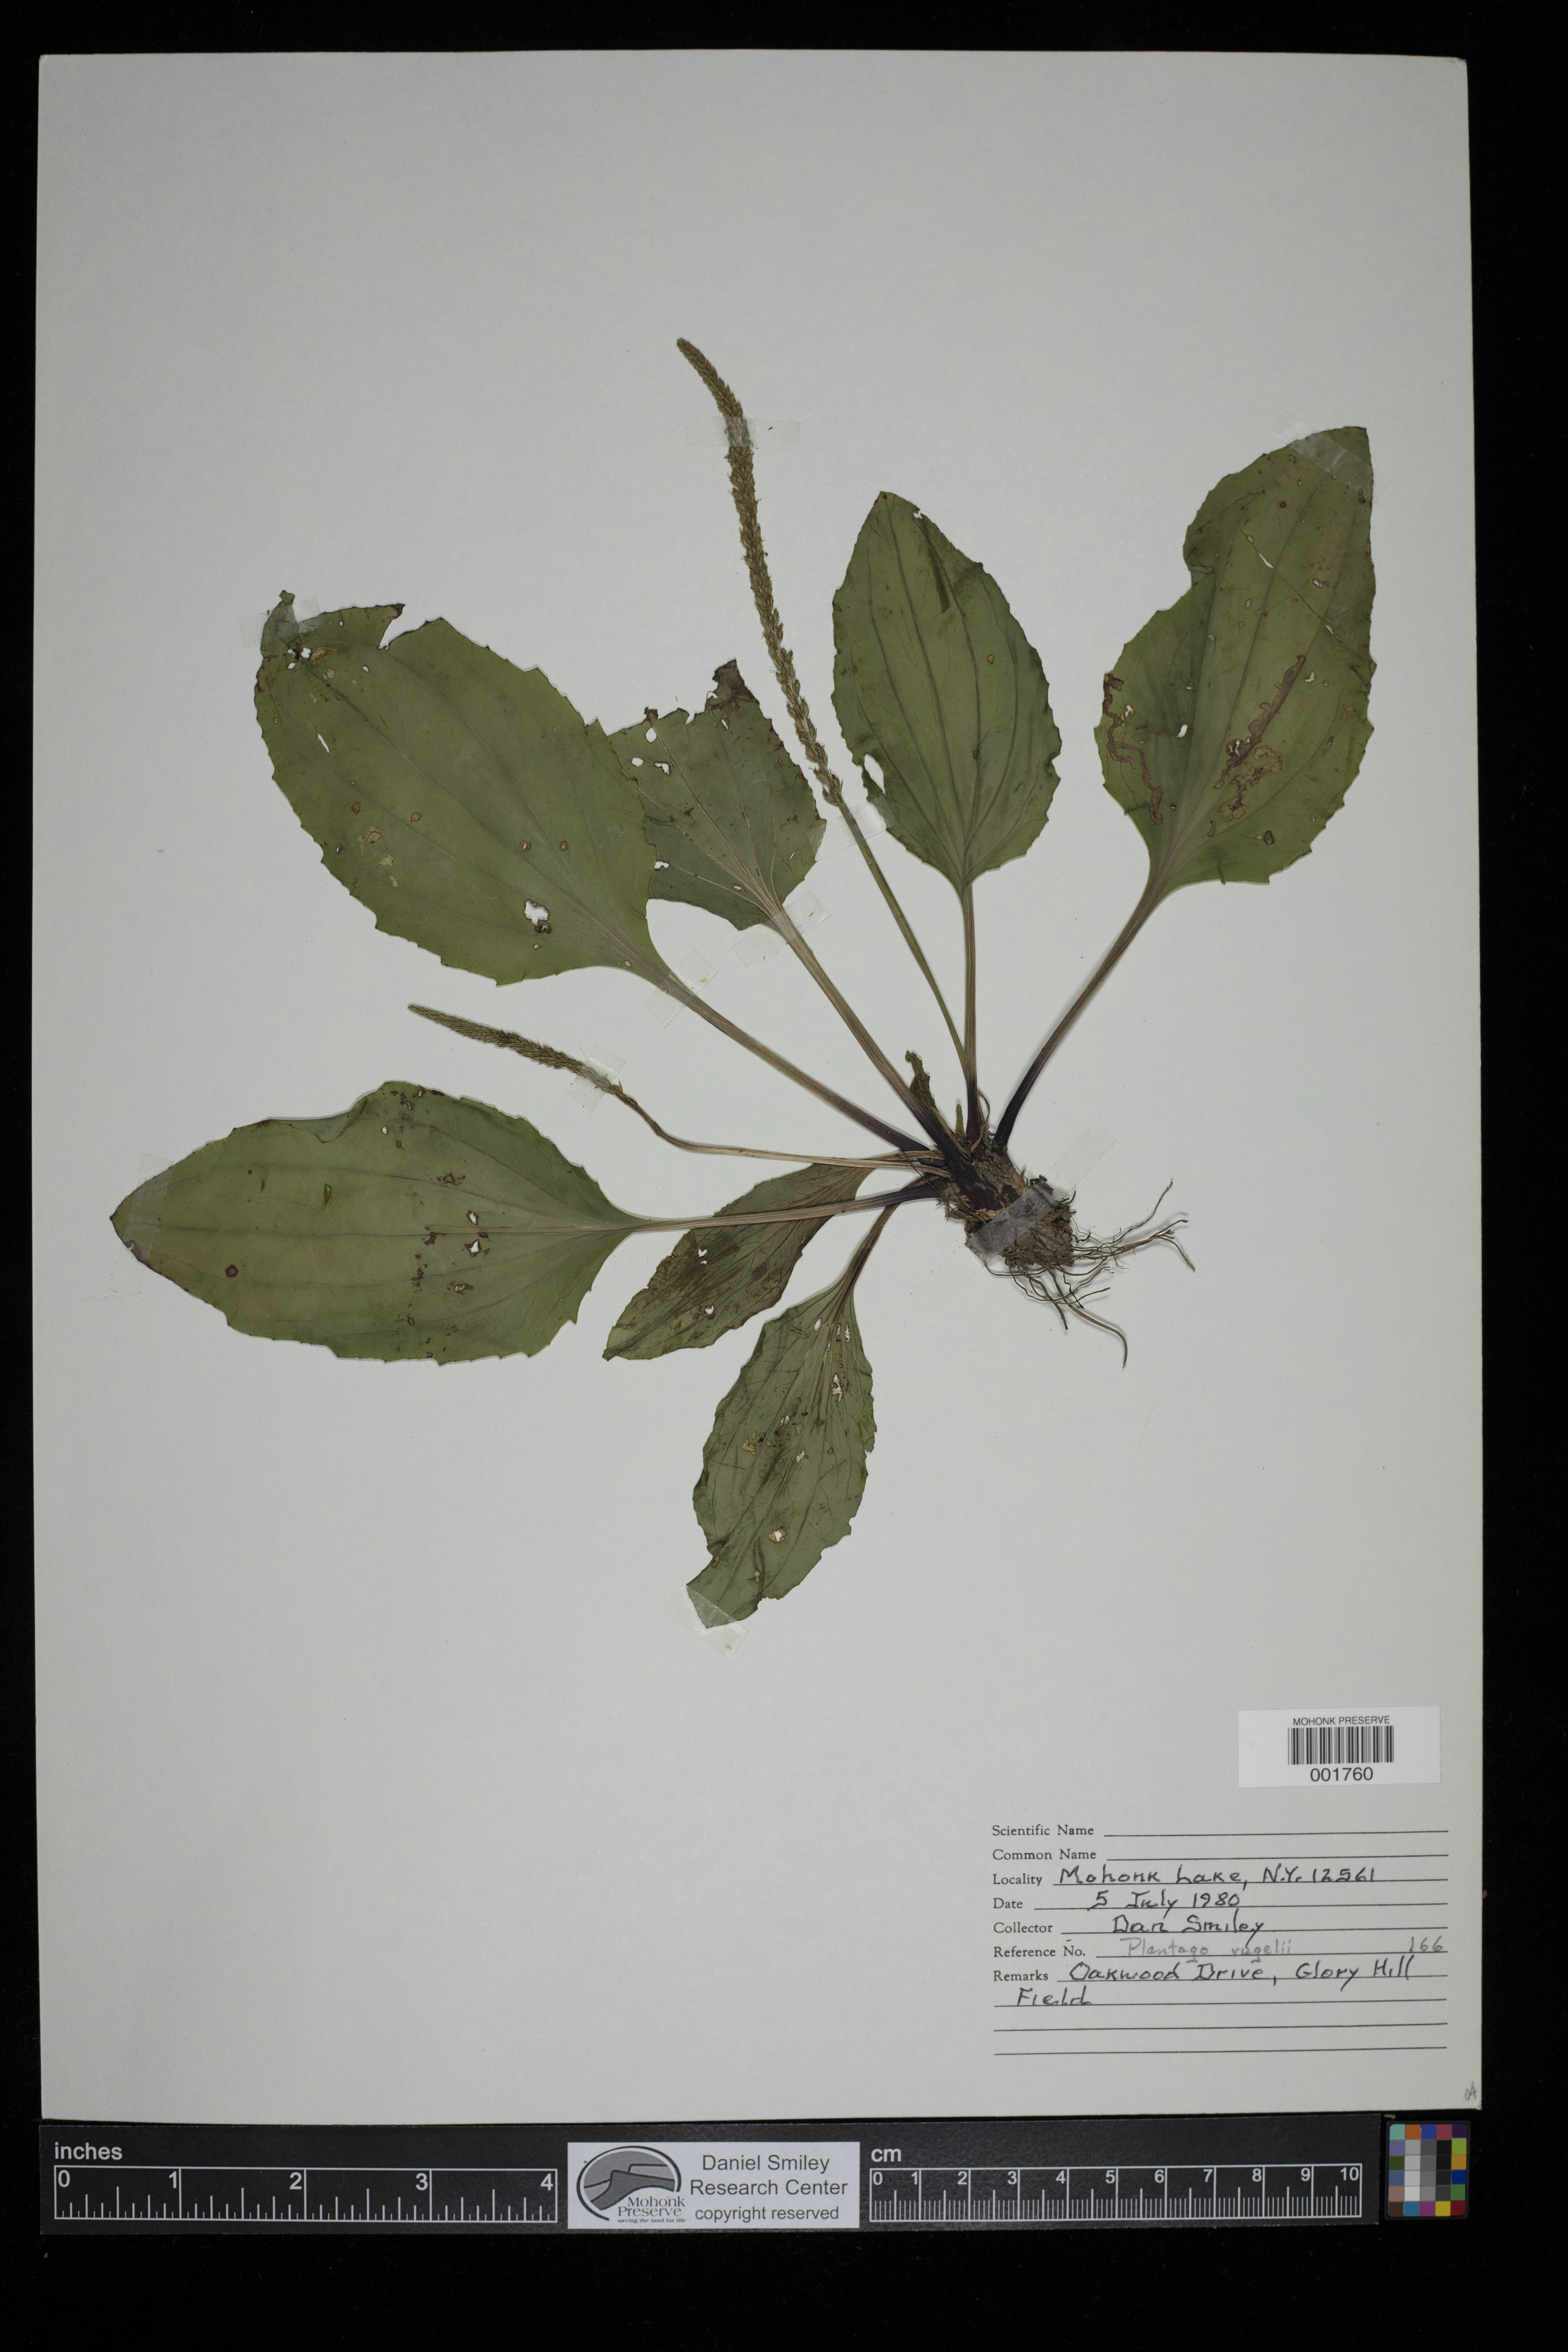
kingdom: Plantae
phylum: Tracheophyta
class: Magnoliopsida
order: Lamiales
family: Plantaginaceae
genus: Plantago
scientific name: Plantago rugelii
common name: American plantain
